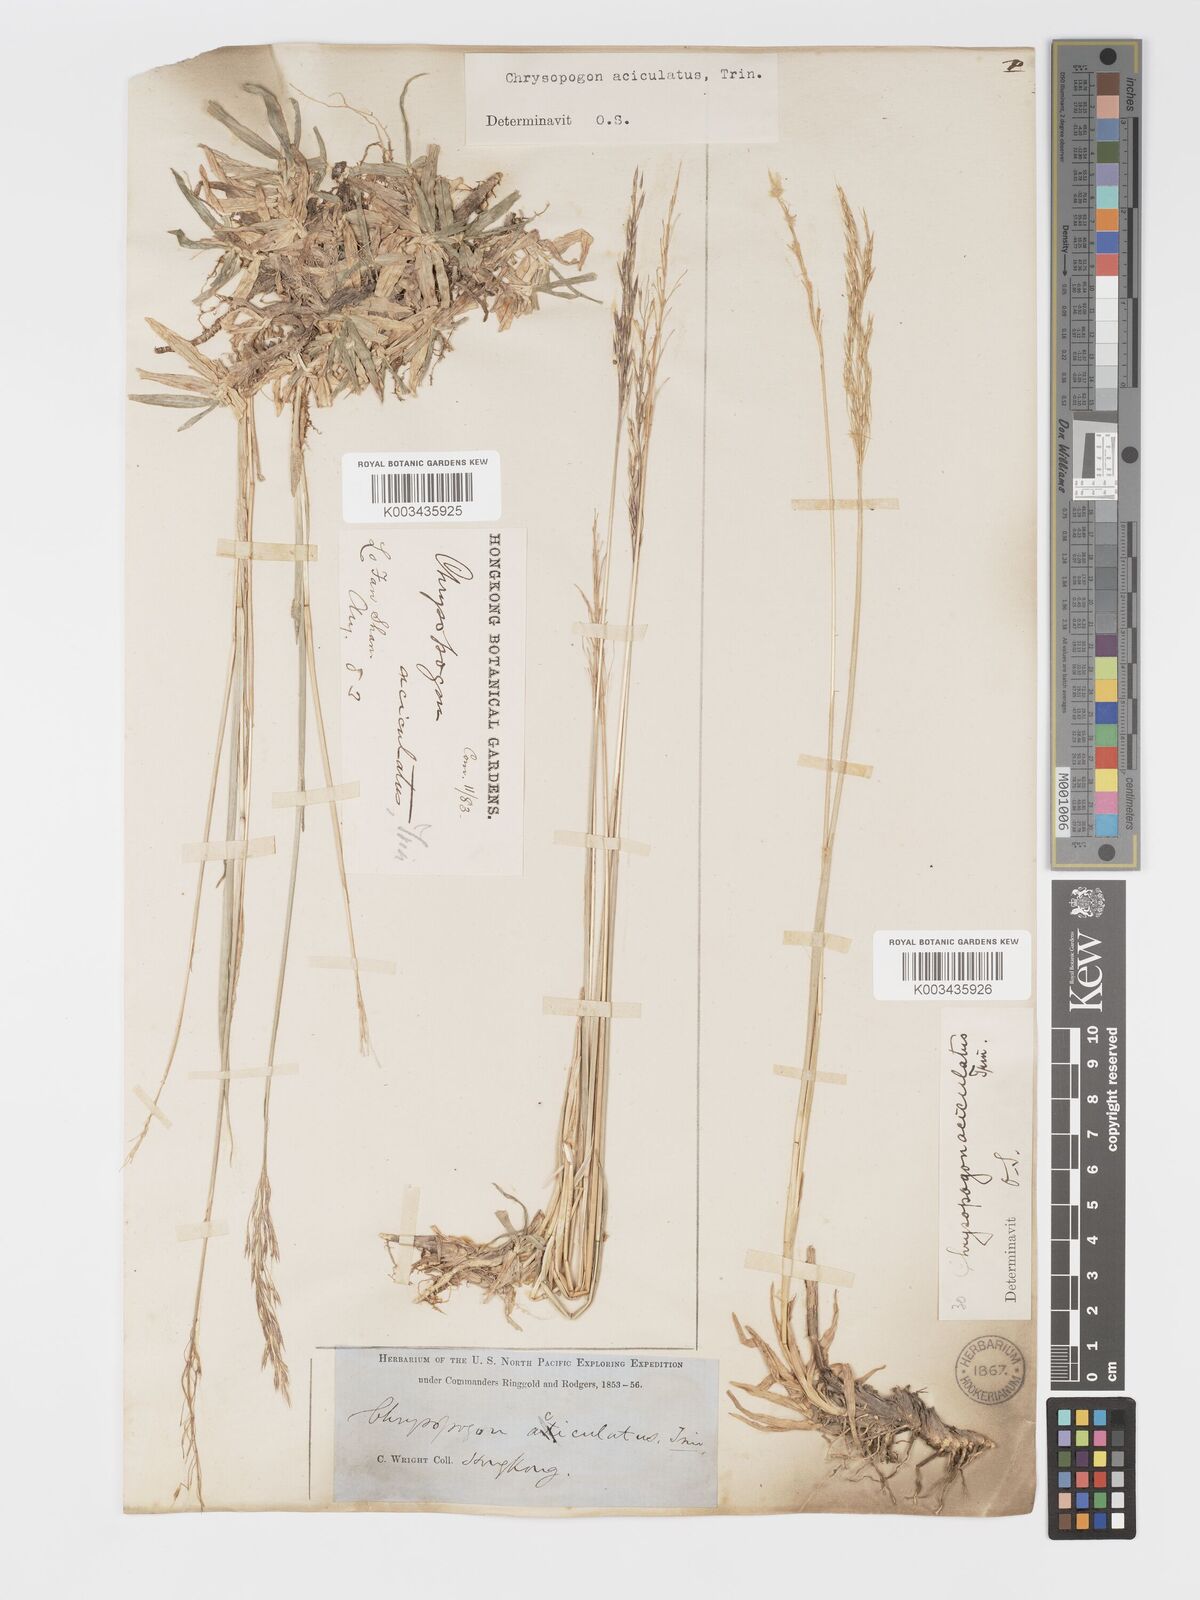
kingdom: Plantae
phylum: Tracheophyta
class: Liliopsida
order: Poales
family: Poaceae
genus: Chrysopogon
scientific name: Chrysopogon aciculatus
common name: Pilipiliula
